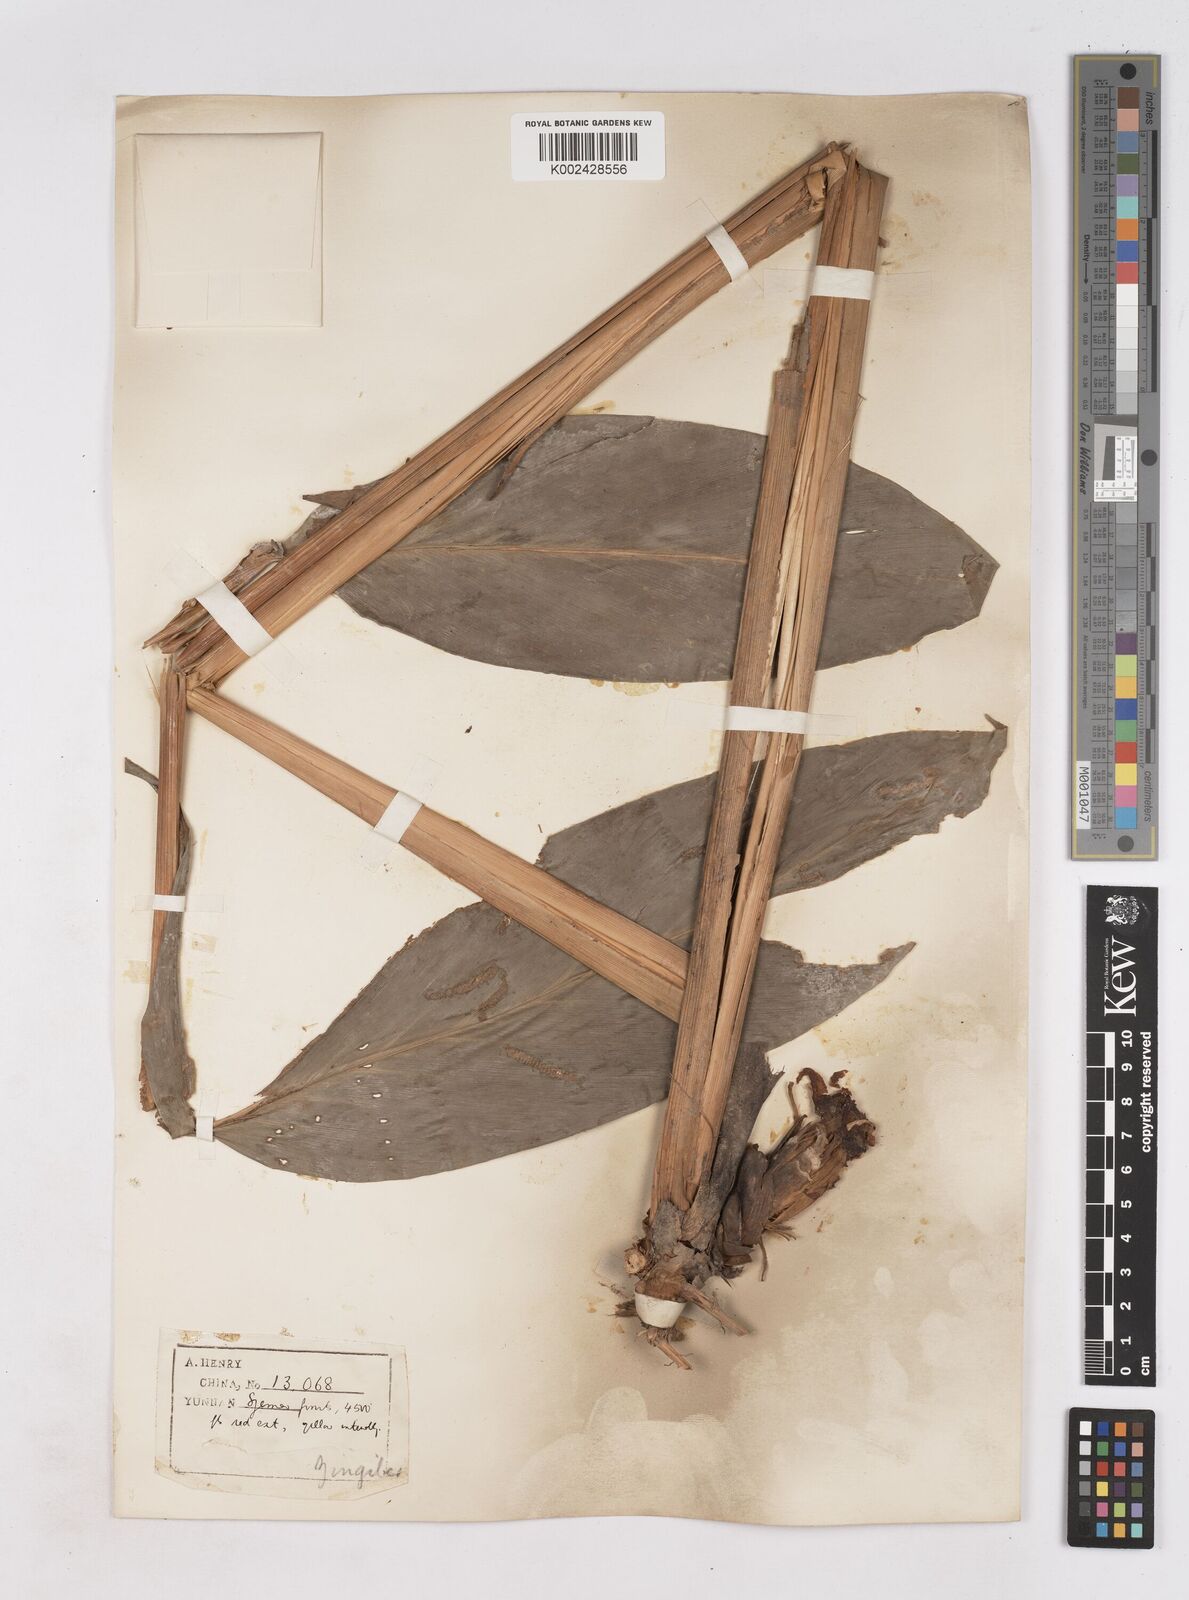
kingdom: Plantae
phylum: Tracheophyta
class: Liliopsida
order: Zingiberales
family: Zingiberaceae
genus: Zingiber
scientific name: Zingiber
